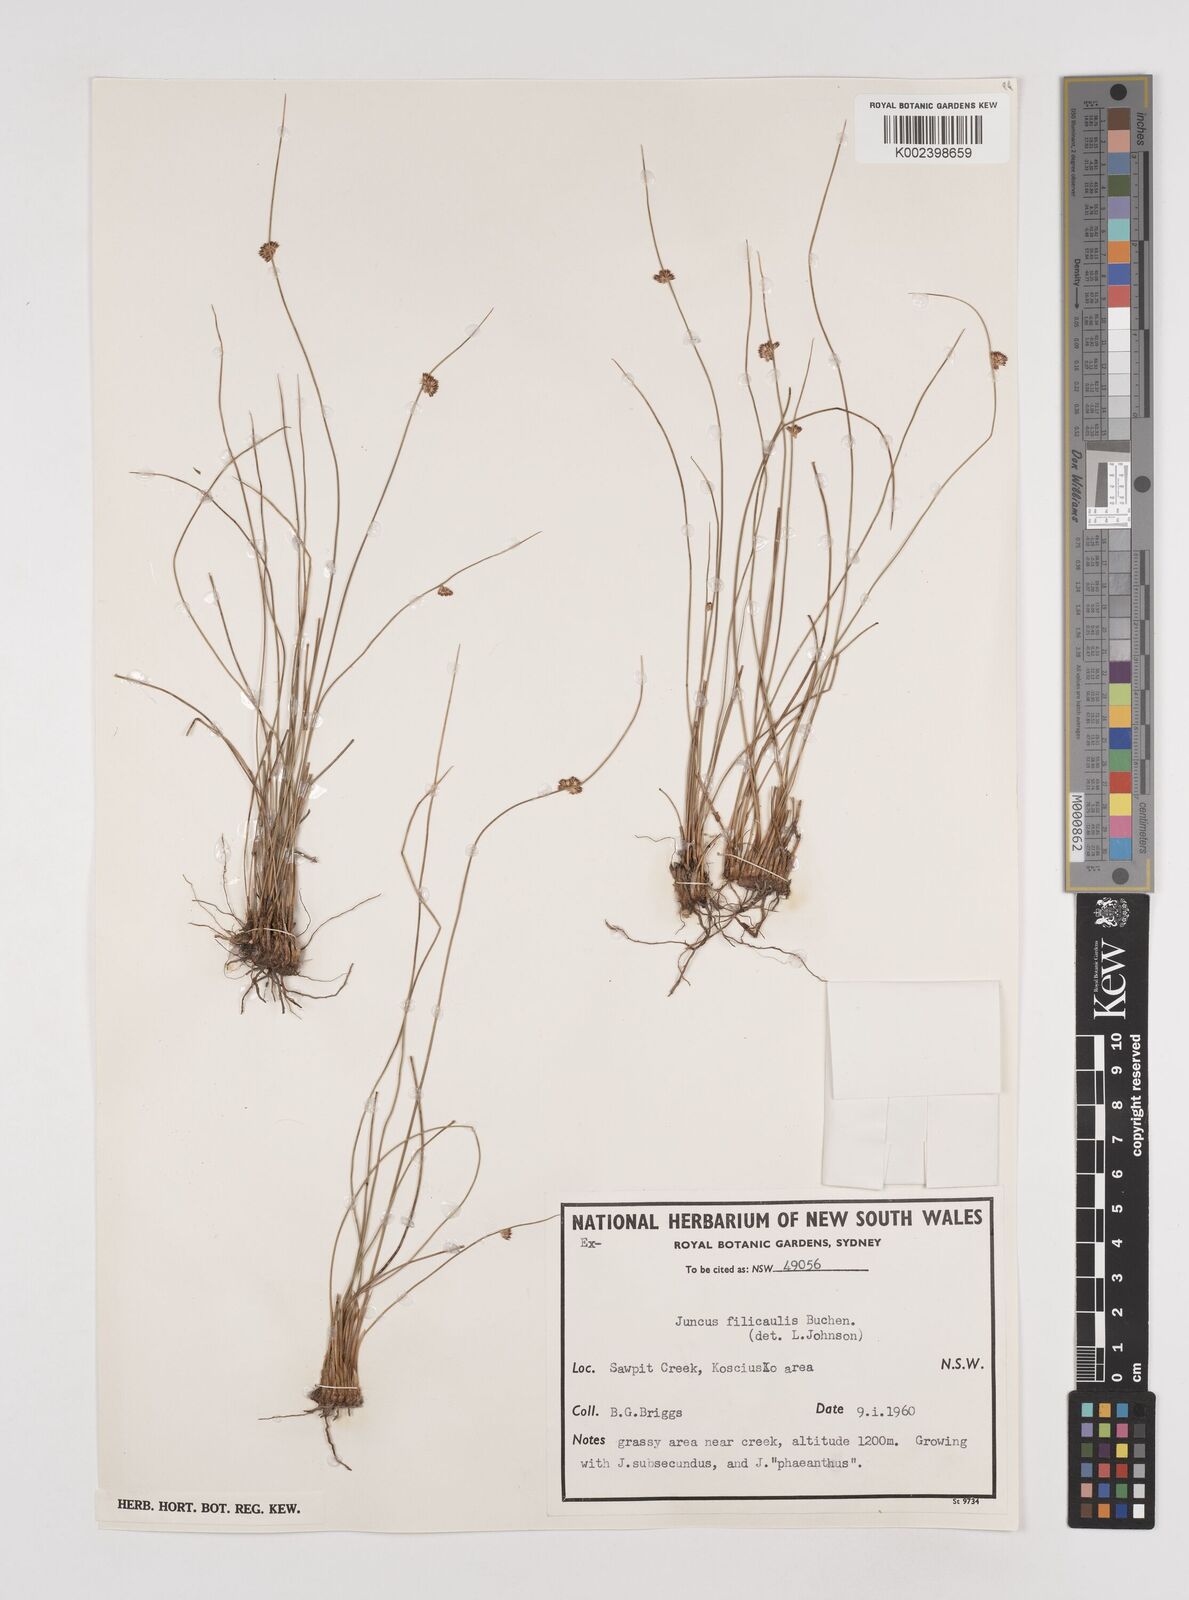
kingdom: Plantae
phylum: Tracheophyta
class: Liliopsida
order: Poales
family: Juncaceae
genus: Juncus
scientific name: Juncus filicaulis
